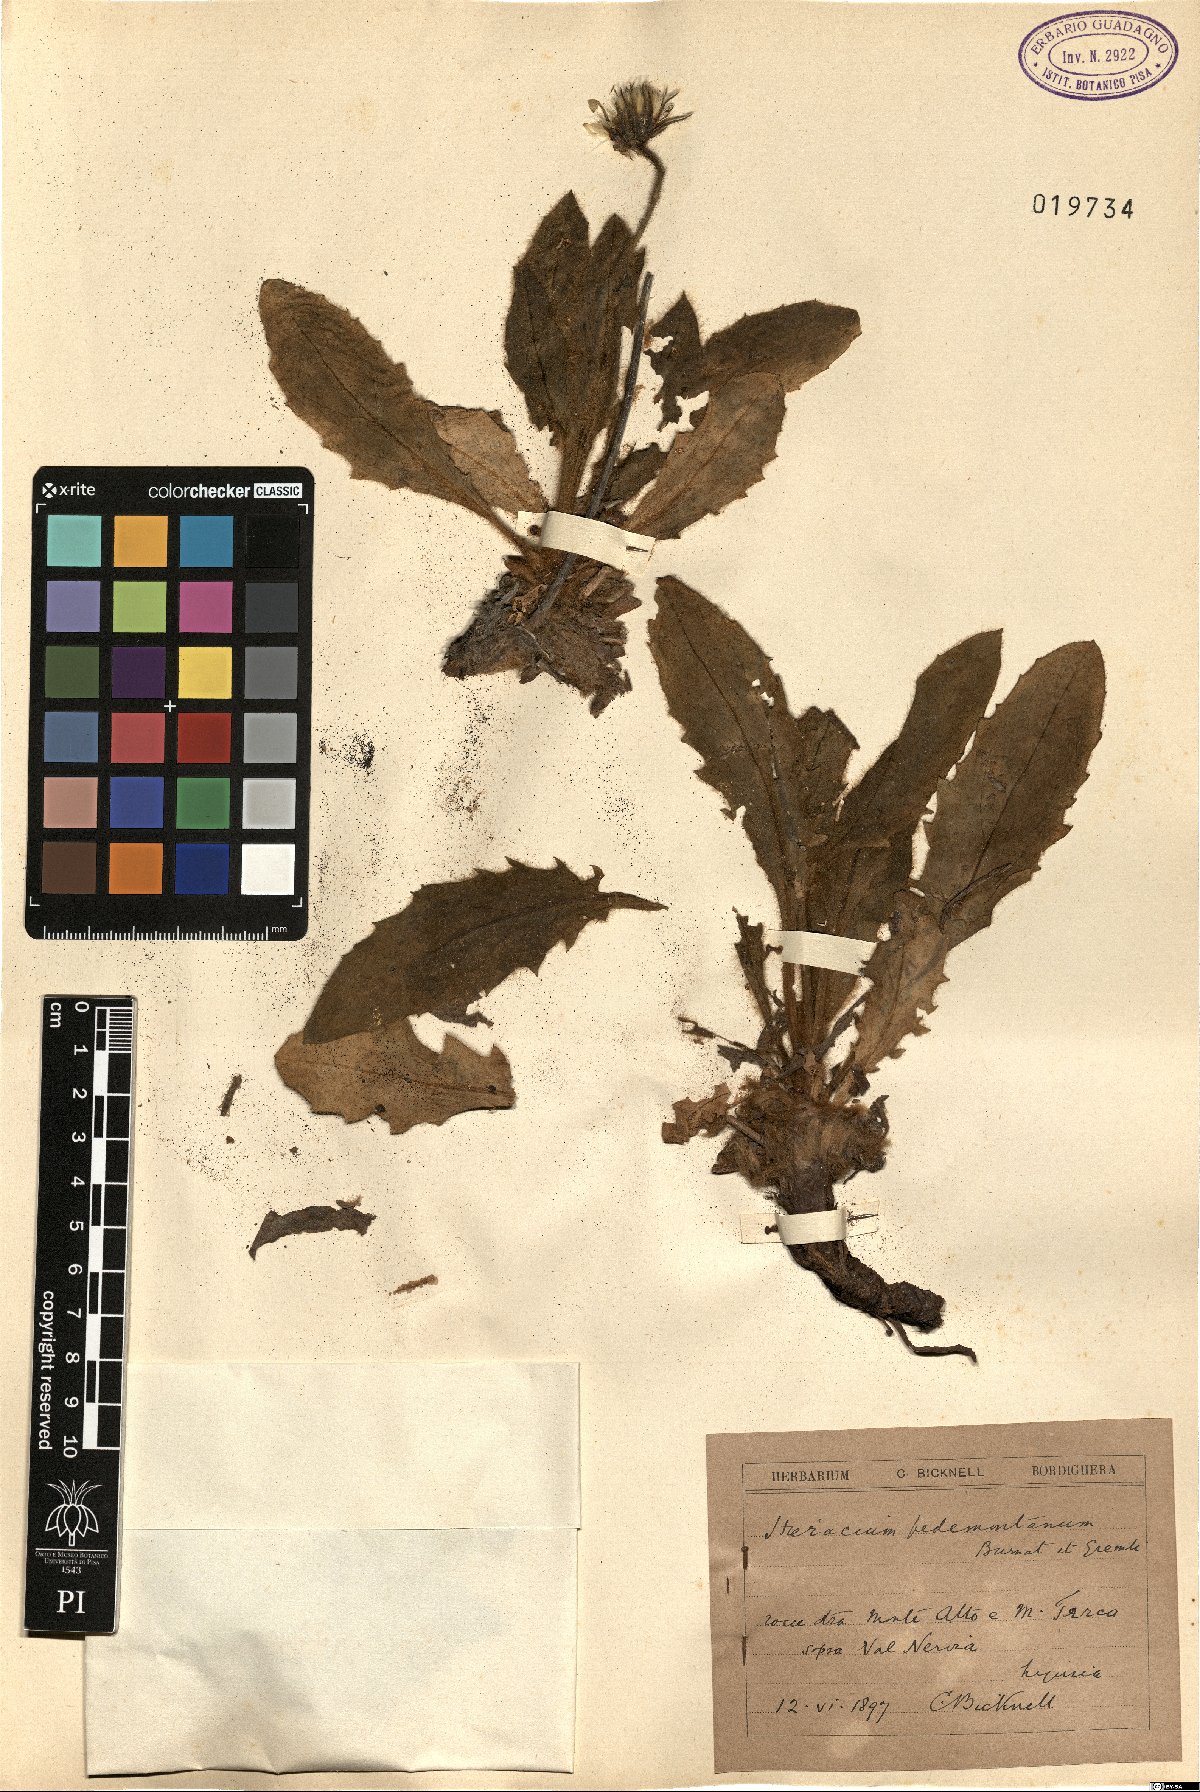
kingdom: Plantae
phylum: Tracheophyta
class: Magnoliopsida
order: Asterales
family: Asteraceae
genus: Hieracium
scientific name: Hieracium pedemontanum
